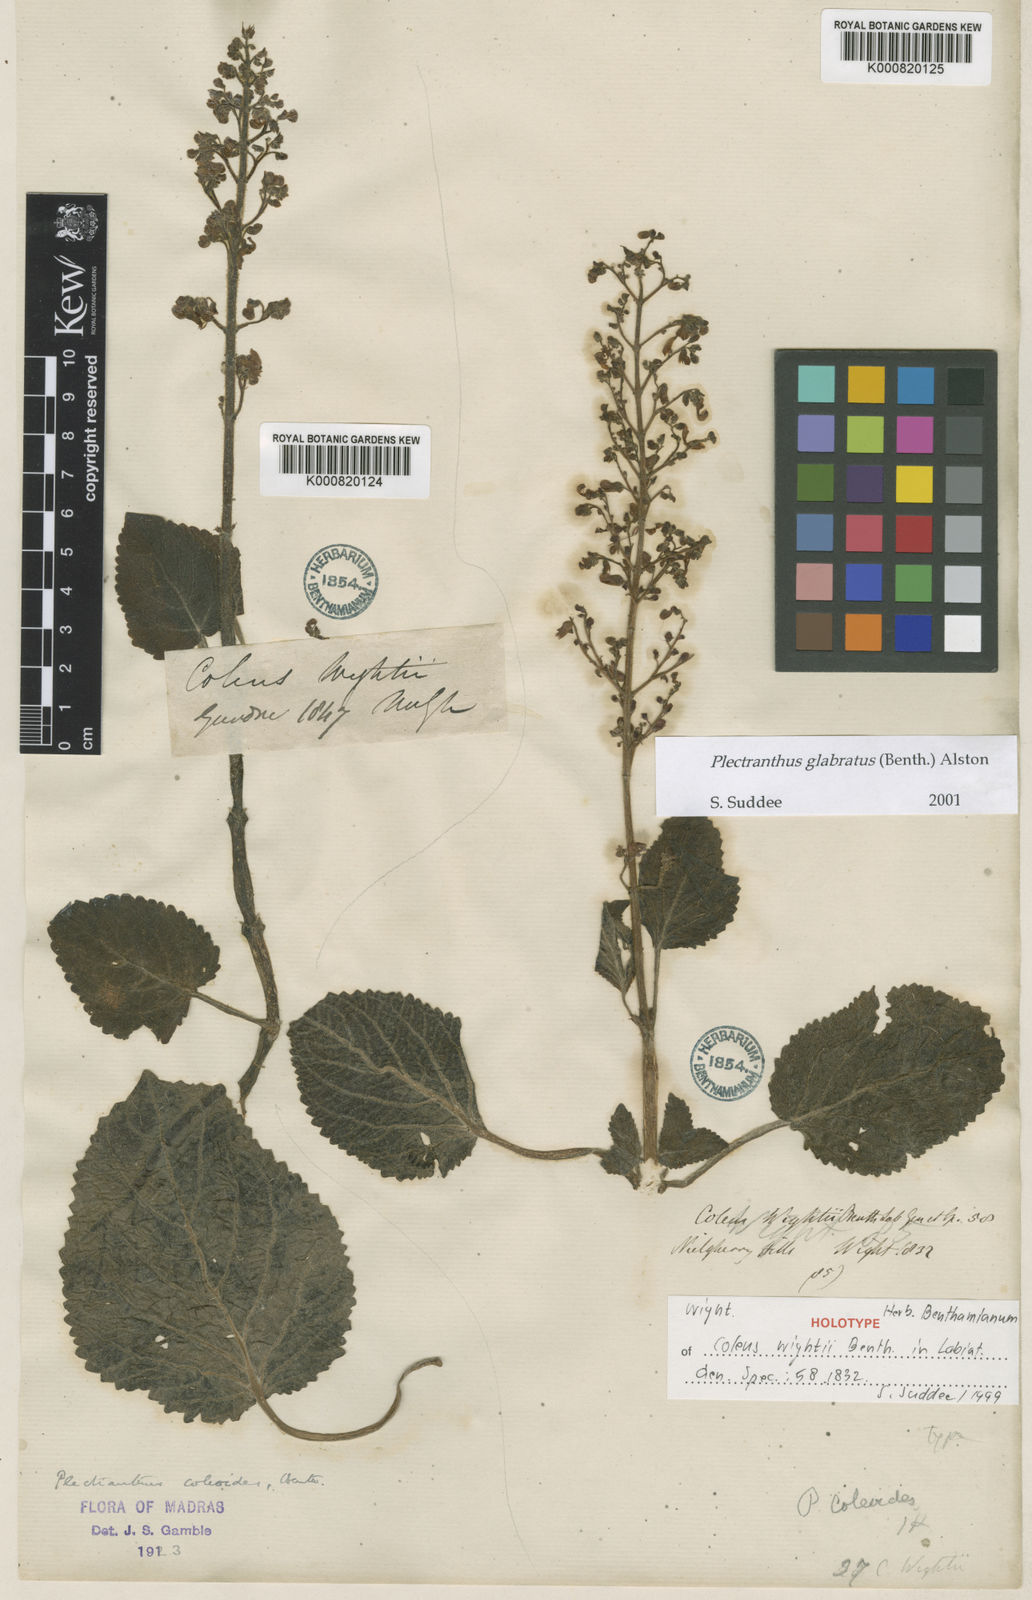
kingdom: Plantae
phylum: Tracheophyta
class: Magnoliopsida
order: Lamiales
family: Lamiaceae
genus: Coleus
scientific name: Coleus paniculatus
